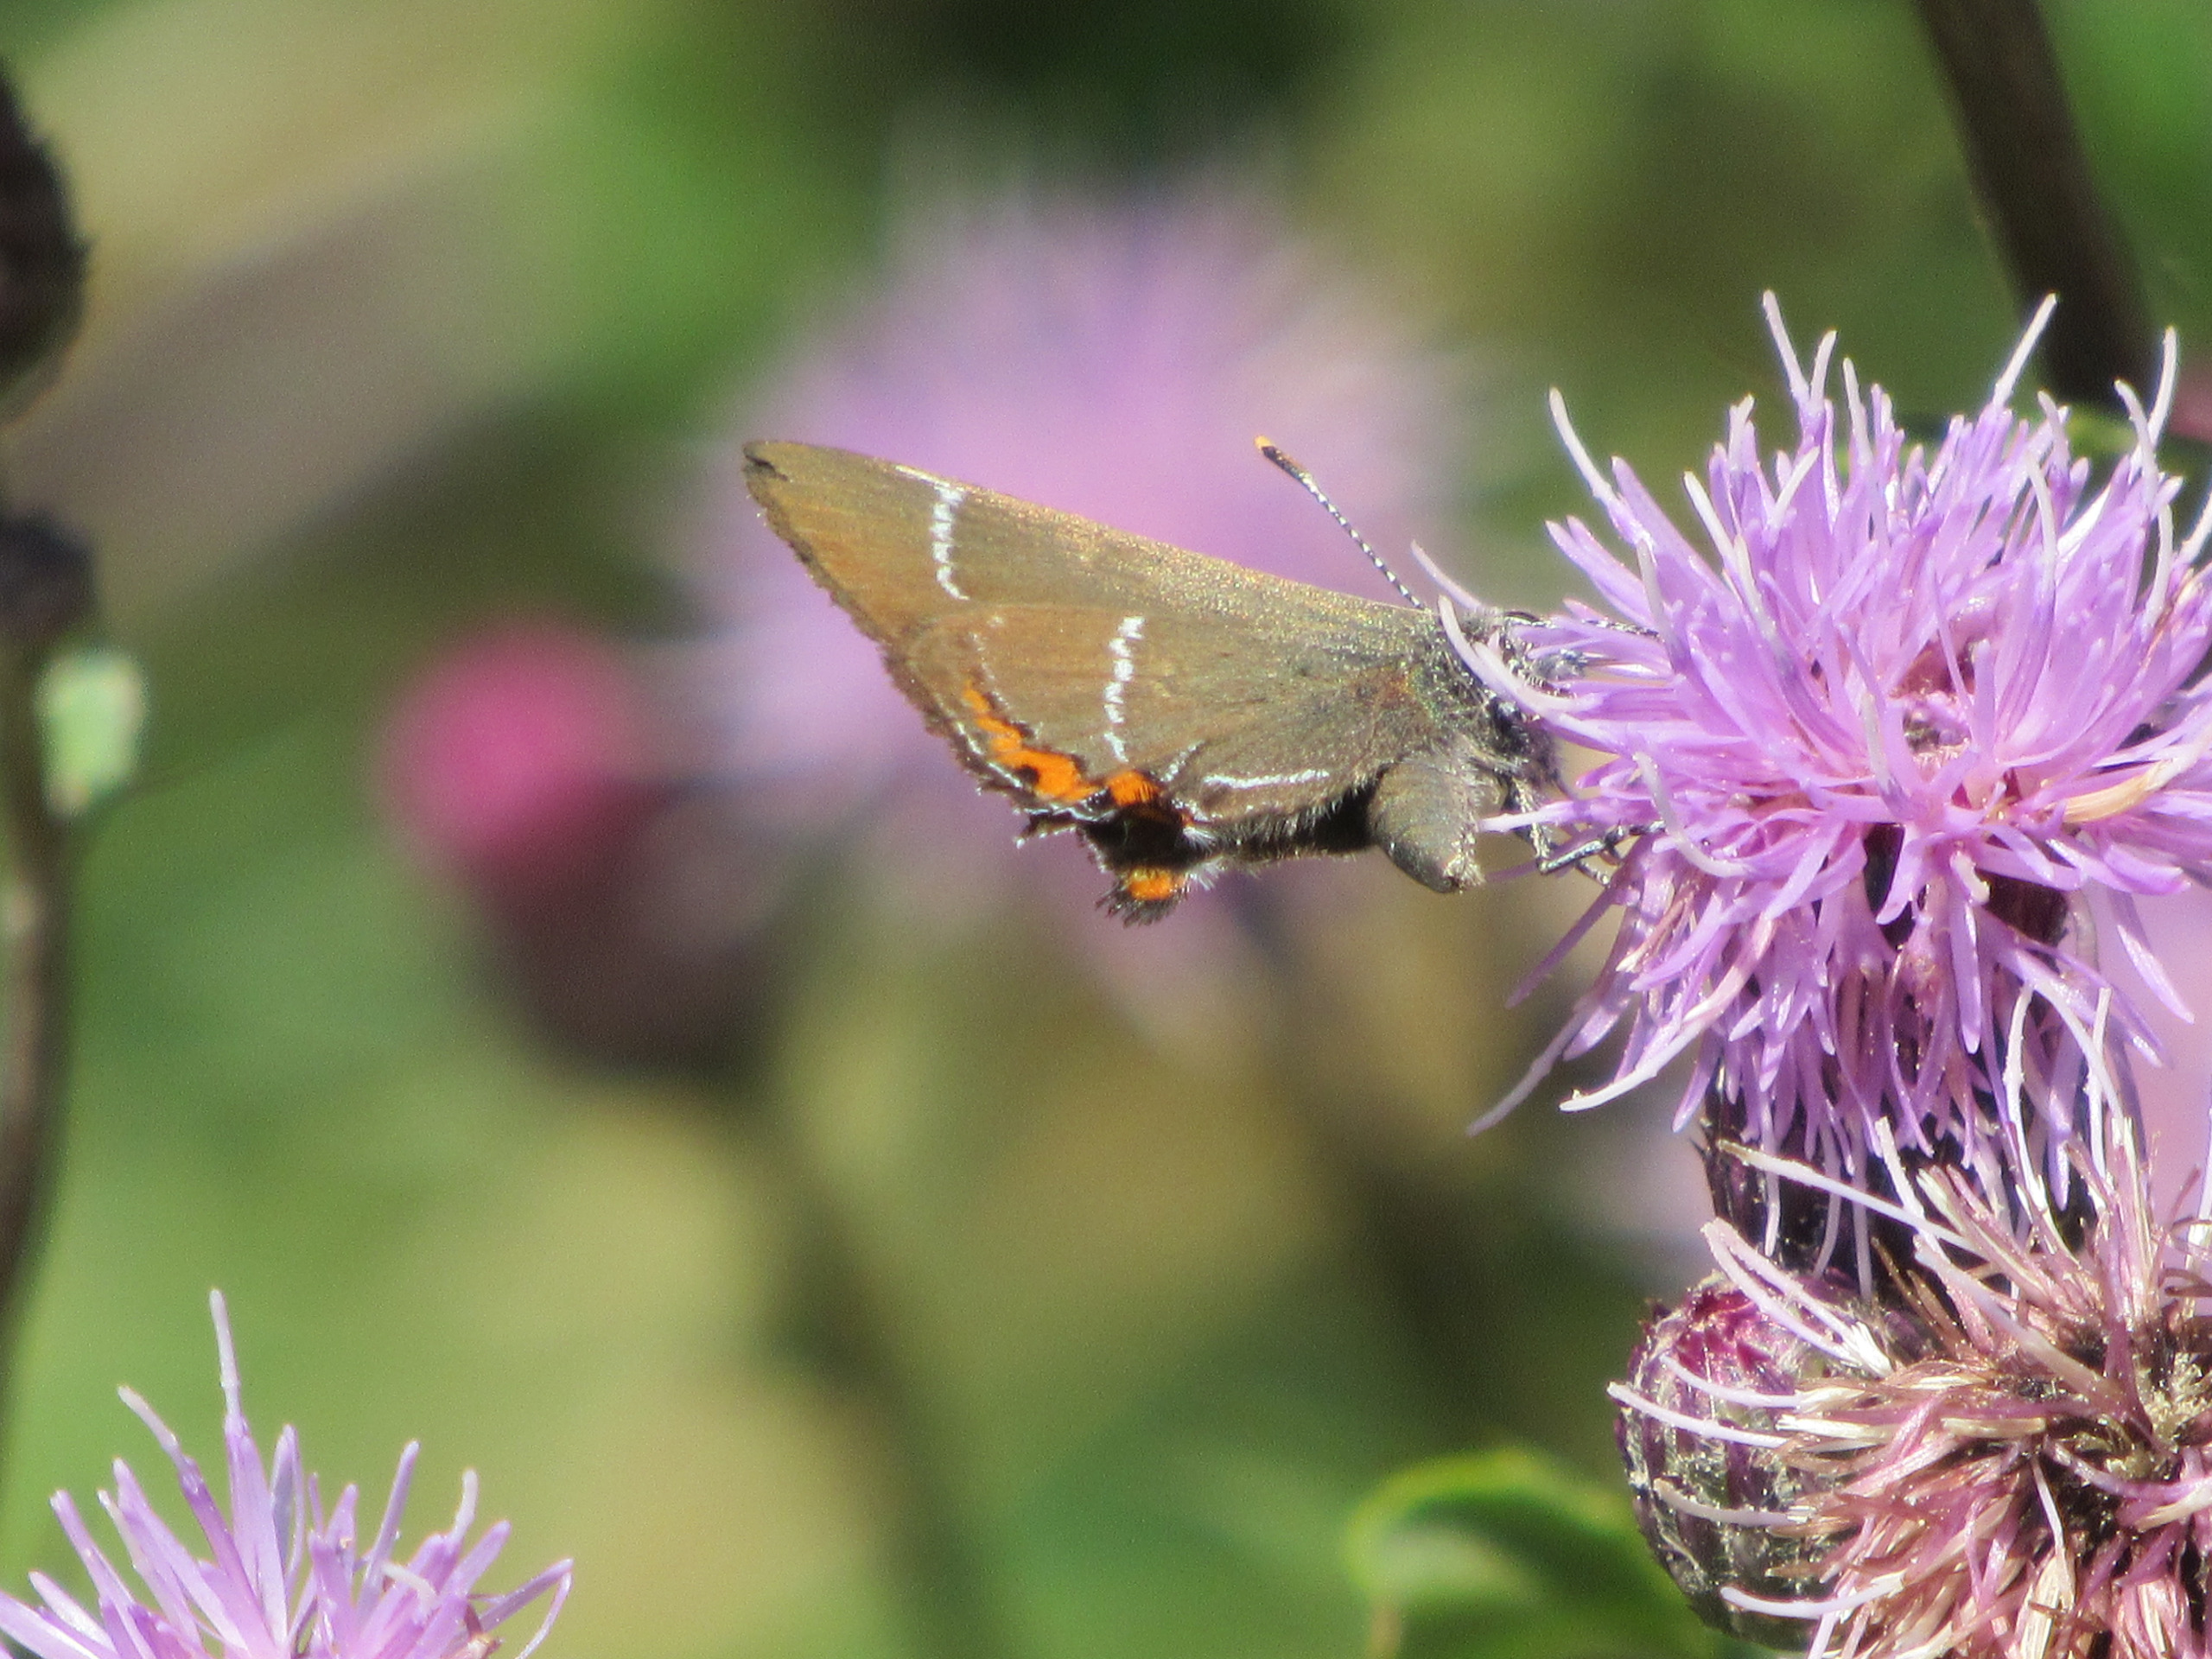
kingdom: Animalia
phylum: Arthropoda
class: Insecta
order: Lepidoptera
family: Lycaenidae
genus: Satyrium
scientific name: Satyrium w-album
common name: Det hvide W
